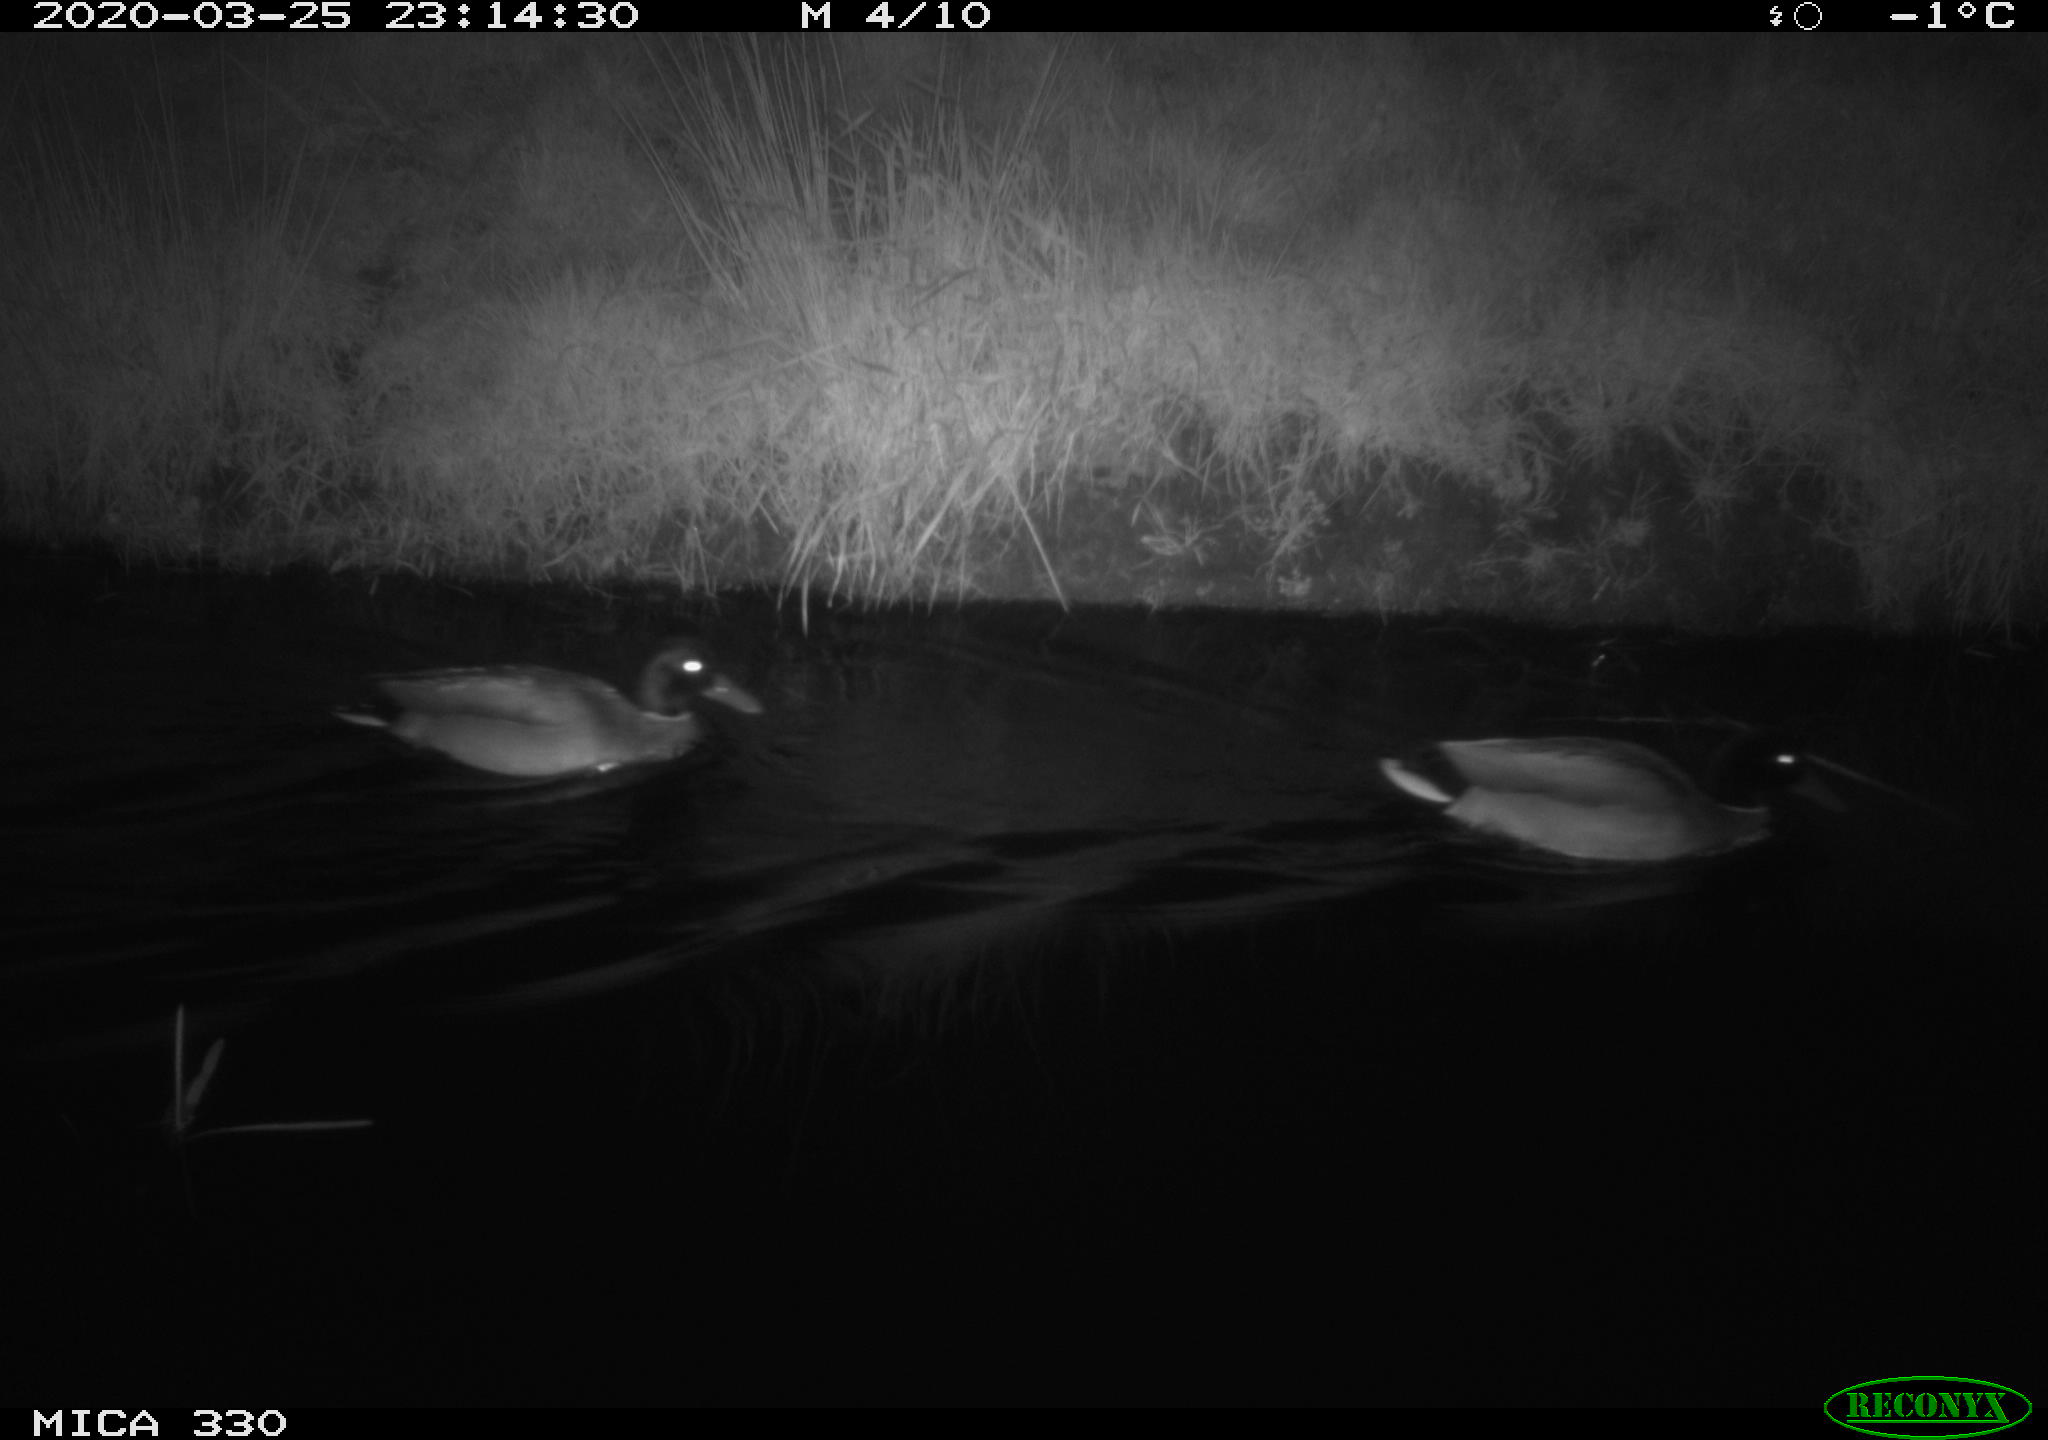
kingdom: Animalia
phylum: Chordata
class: Aves
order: Anseriformes
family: Anatidae
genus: Anas
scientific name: Anas platyrhynchos
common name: Mallard
